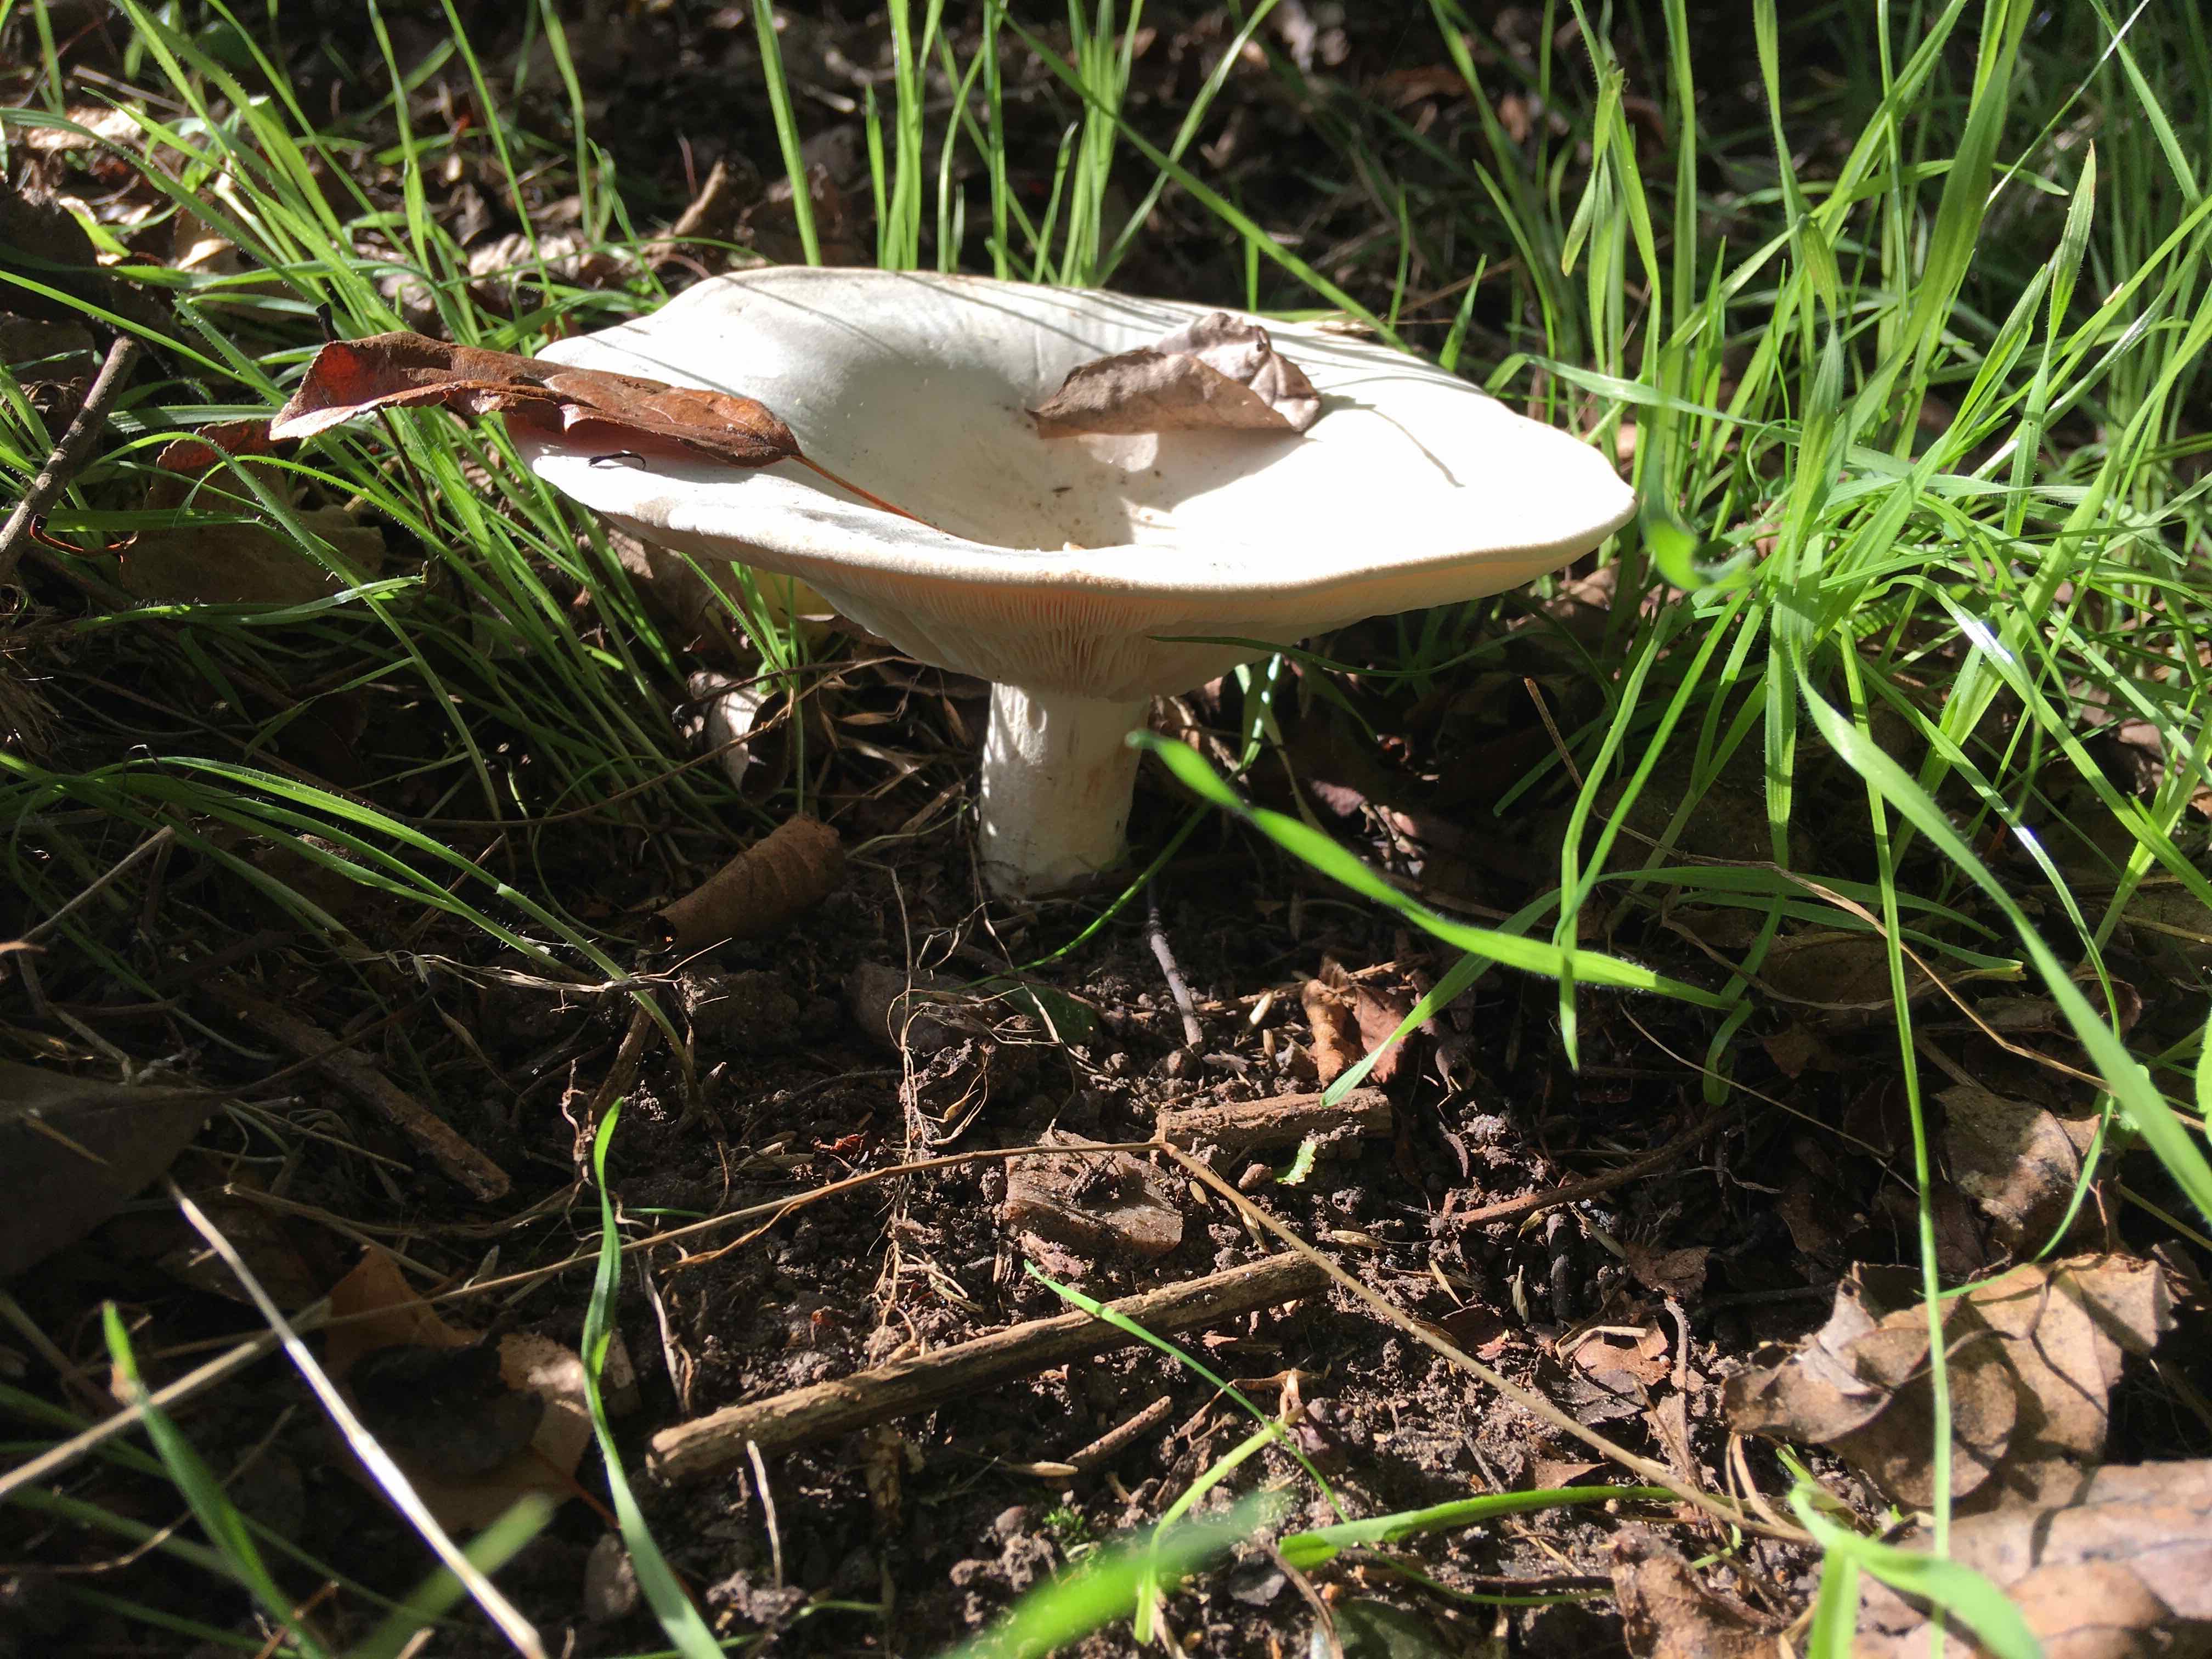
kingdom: Fungi
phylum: Basidiomycota
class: Agaricomycetes
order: Agaricales
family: Tricholomataceae
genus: Aspropaxillus
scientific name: Aspropaxillus giganteus
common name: kæmpe-tragtridderhat
